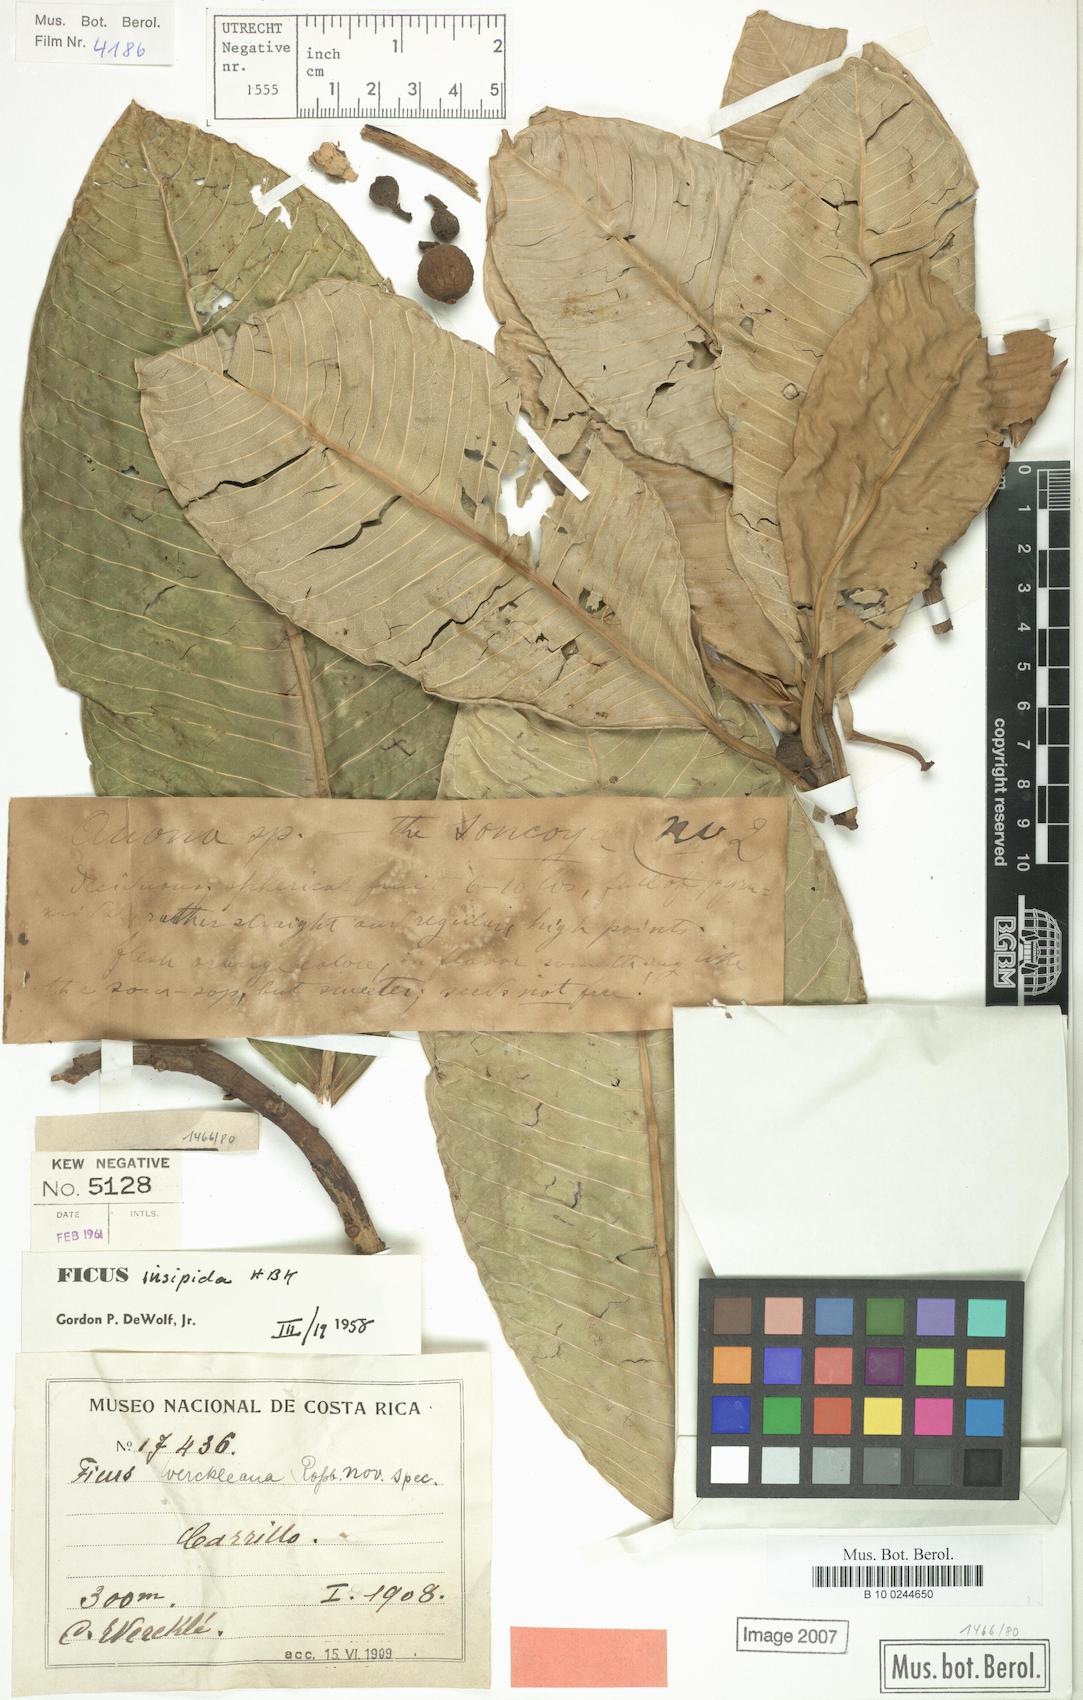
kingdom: Plantae
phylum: Tracheophyta
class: Magnoliopsida
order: Rosales
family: Moraceae
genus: Ficus
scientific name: Ficus insipida
